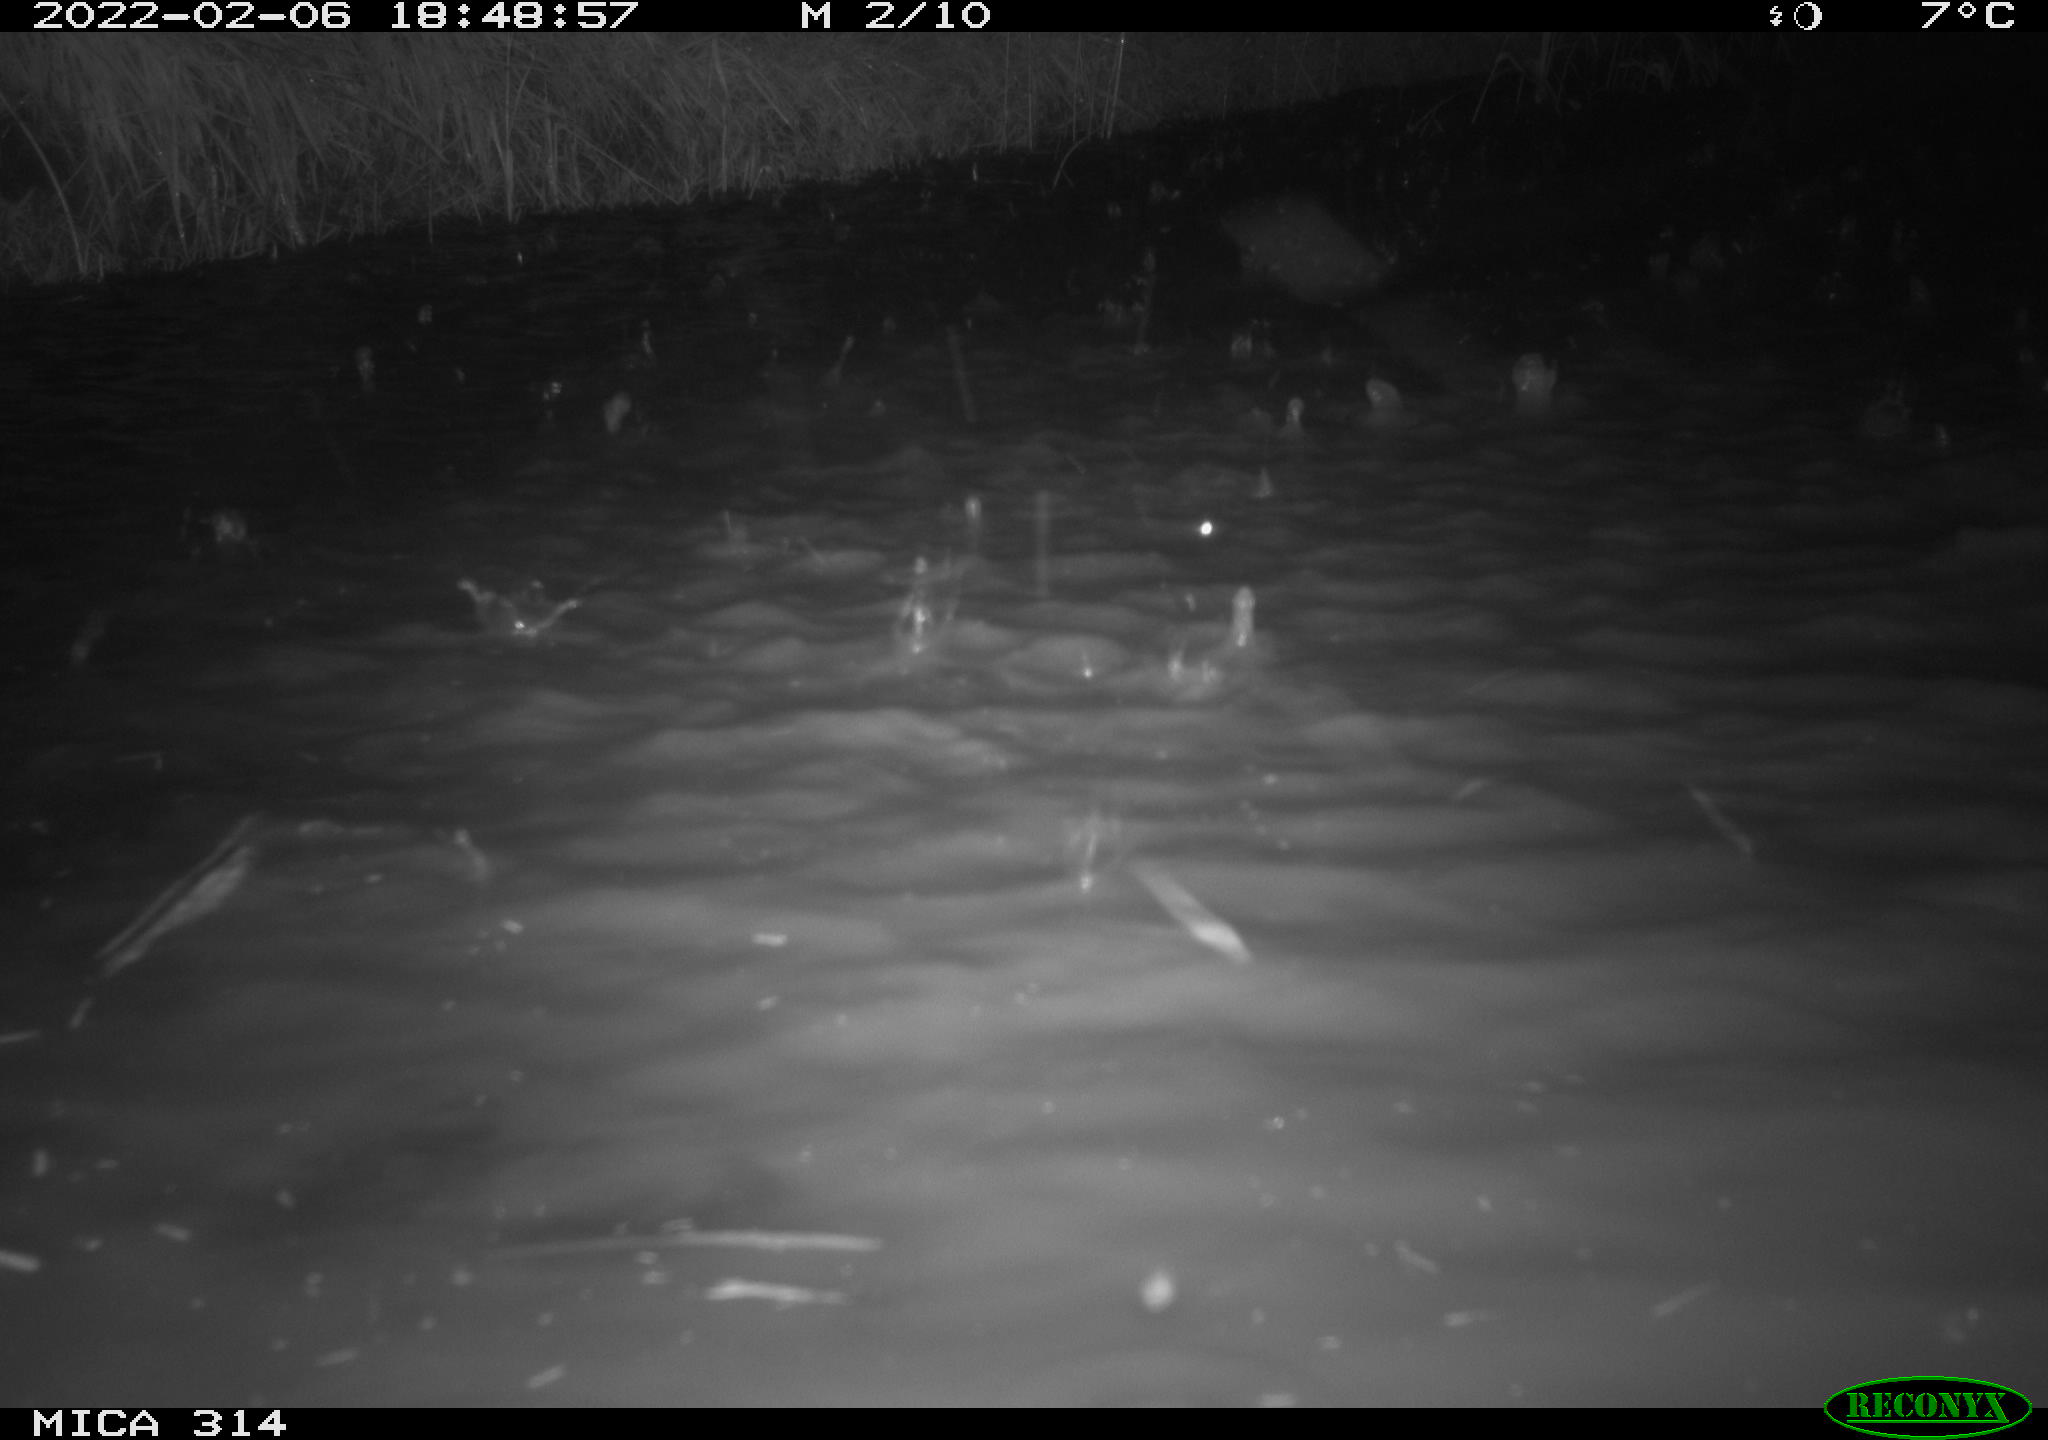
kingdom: Animalia
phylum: Chordata
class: Aves
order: Gruiformes
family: Rallidae
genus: Gallinula
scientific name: Gallinula chloropus
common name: Common moorhen
